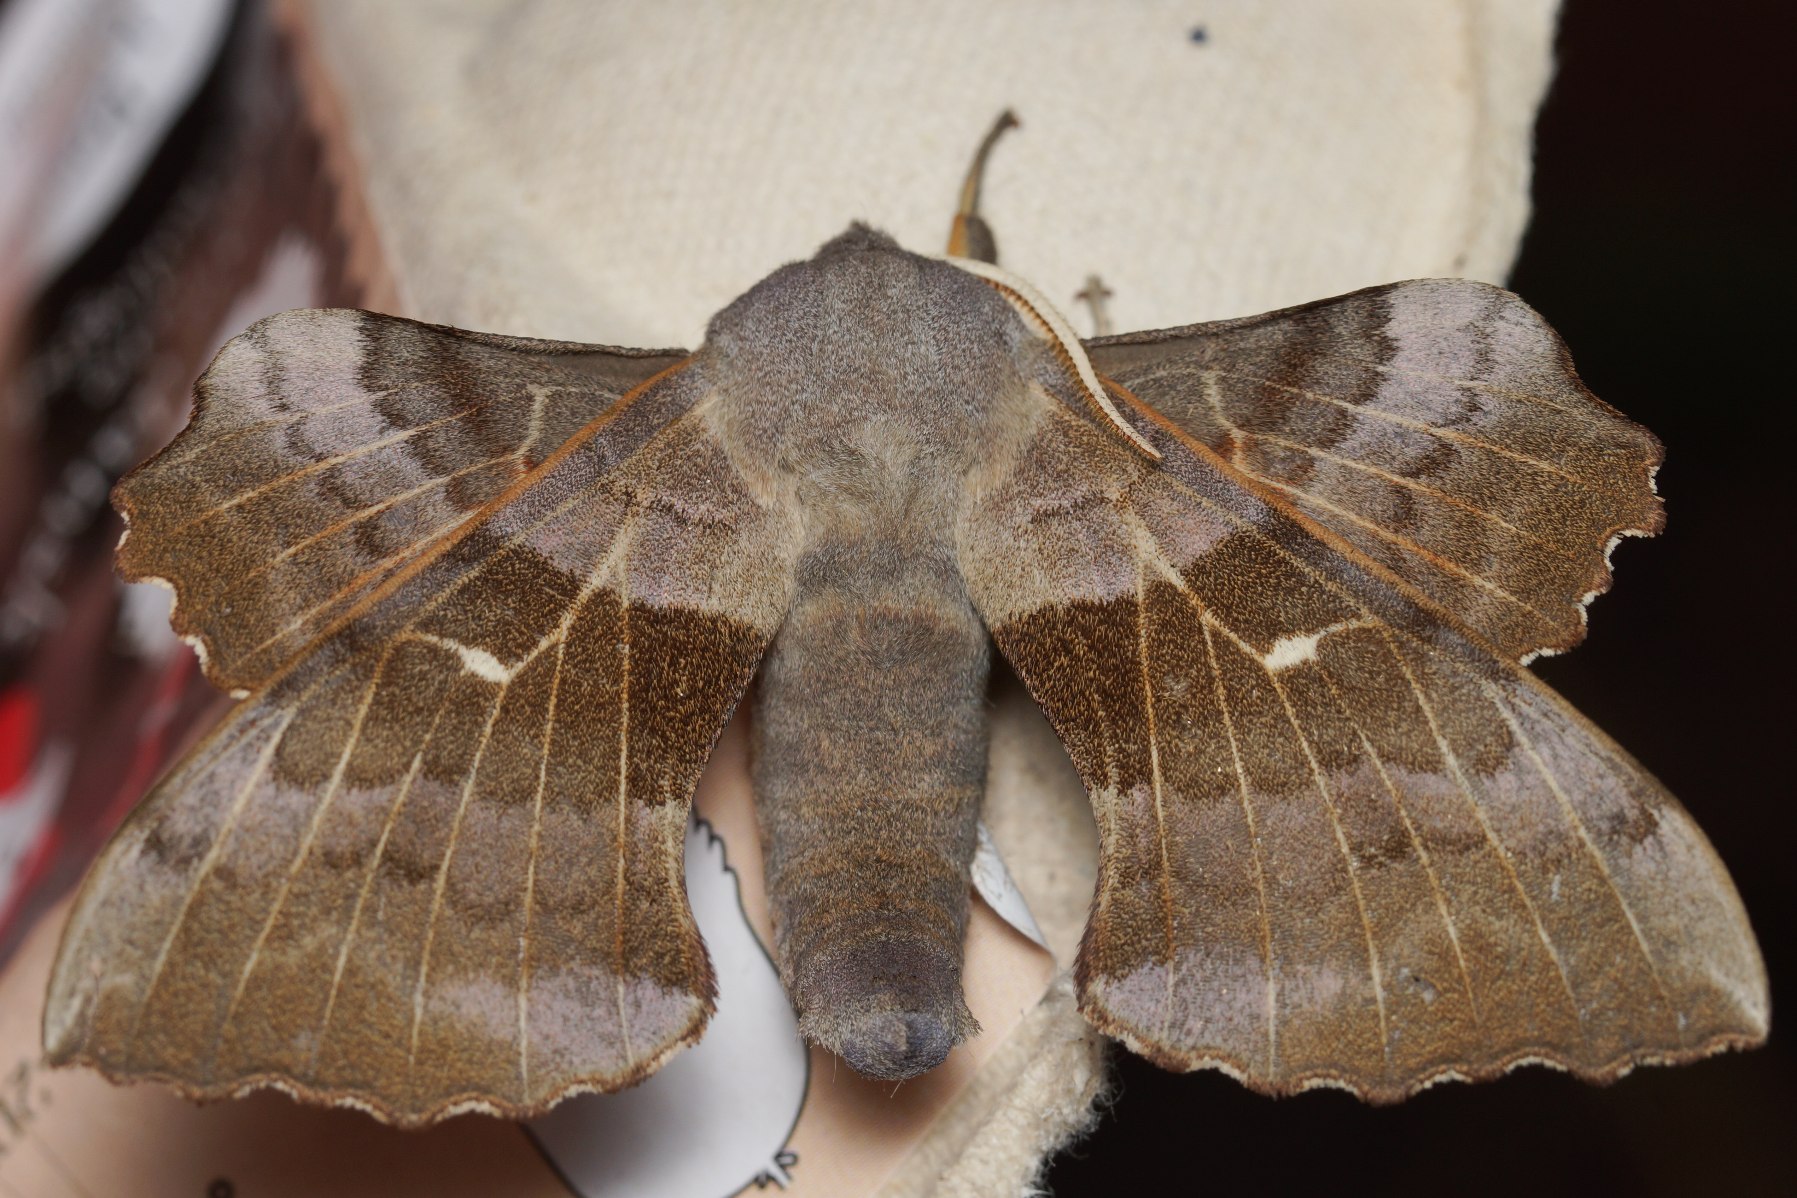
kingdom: Animalia
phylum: Arthropoda
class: Insecta
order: Lepidoptera
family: Sphingidae
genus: Laothoe
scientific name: Laothoe populi
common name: Poppelsværmer
